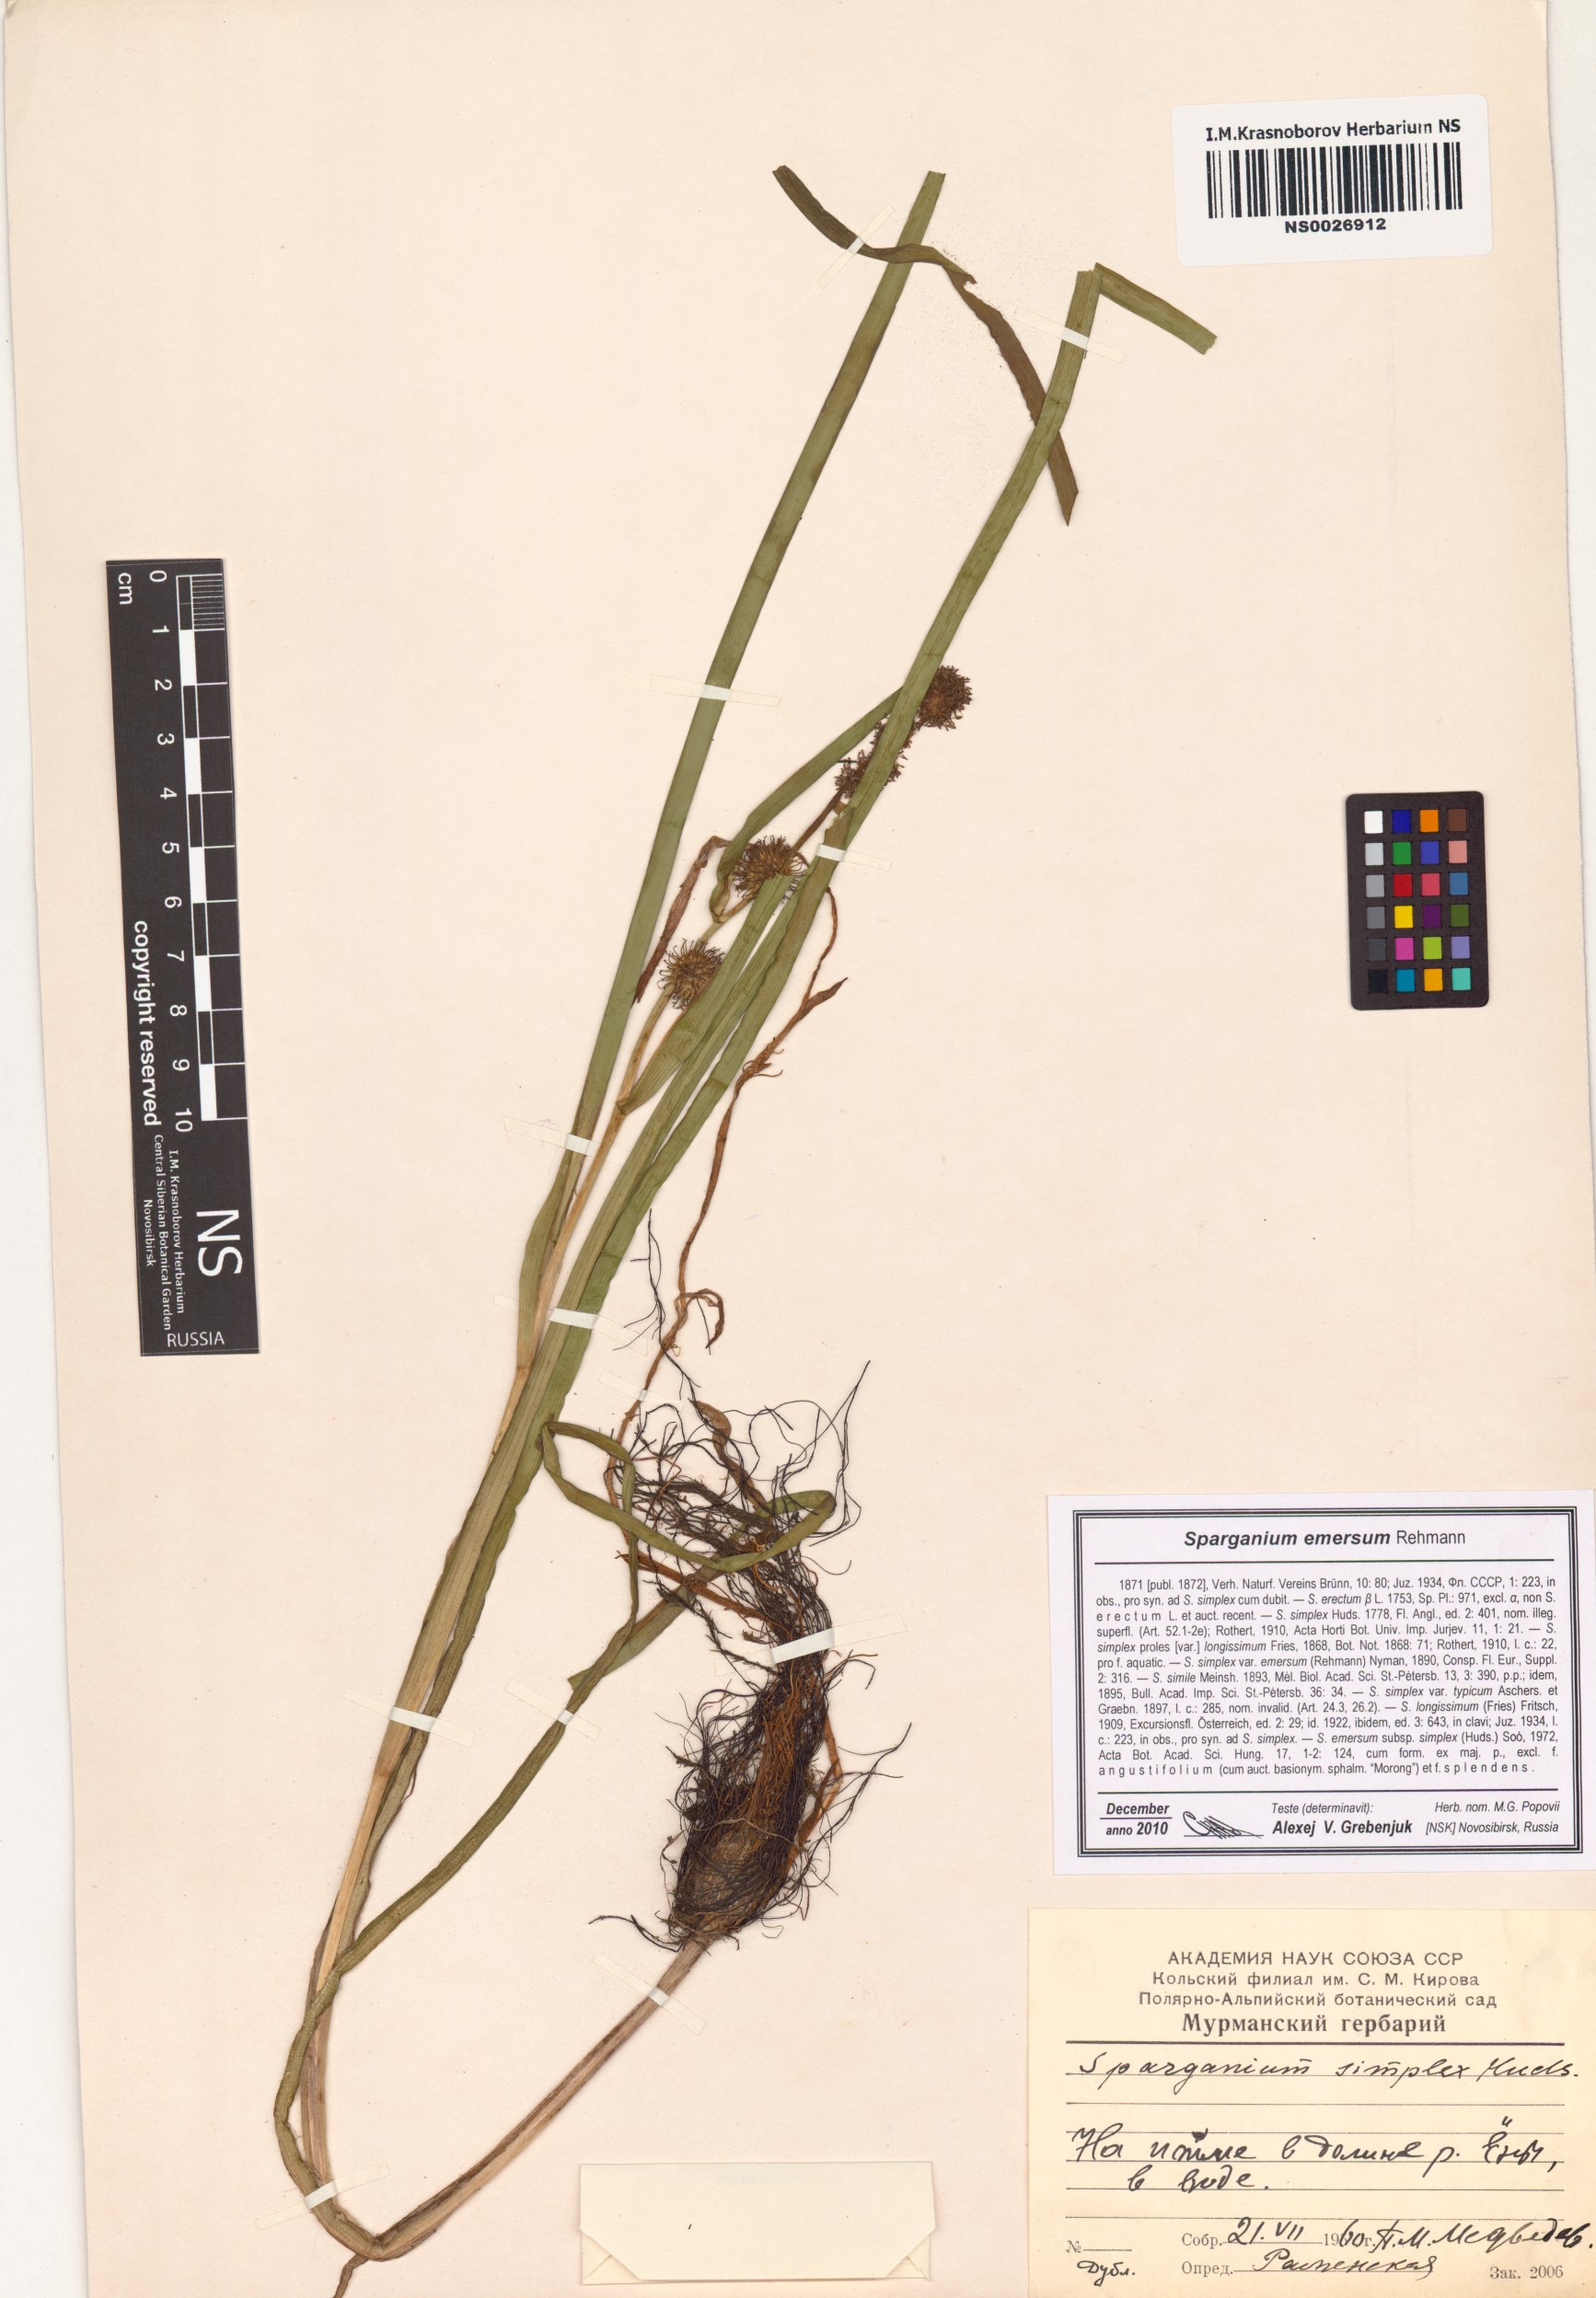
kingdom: Plantae
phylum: Tracheophyta
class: Liliopsida
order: Poales
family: Typhaceae
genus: Sparganium
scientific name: Sparganium emersum
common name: Unbranched bur-reed
